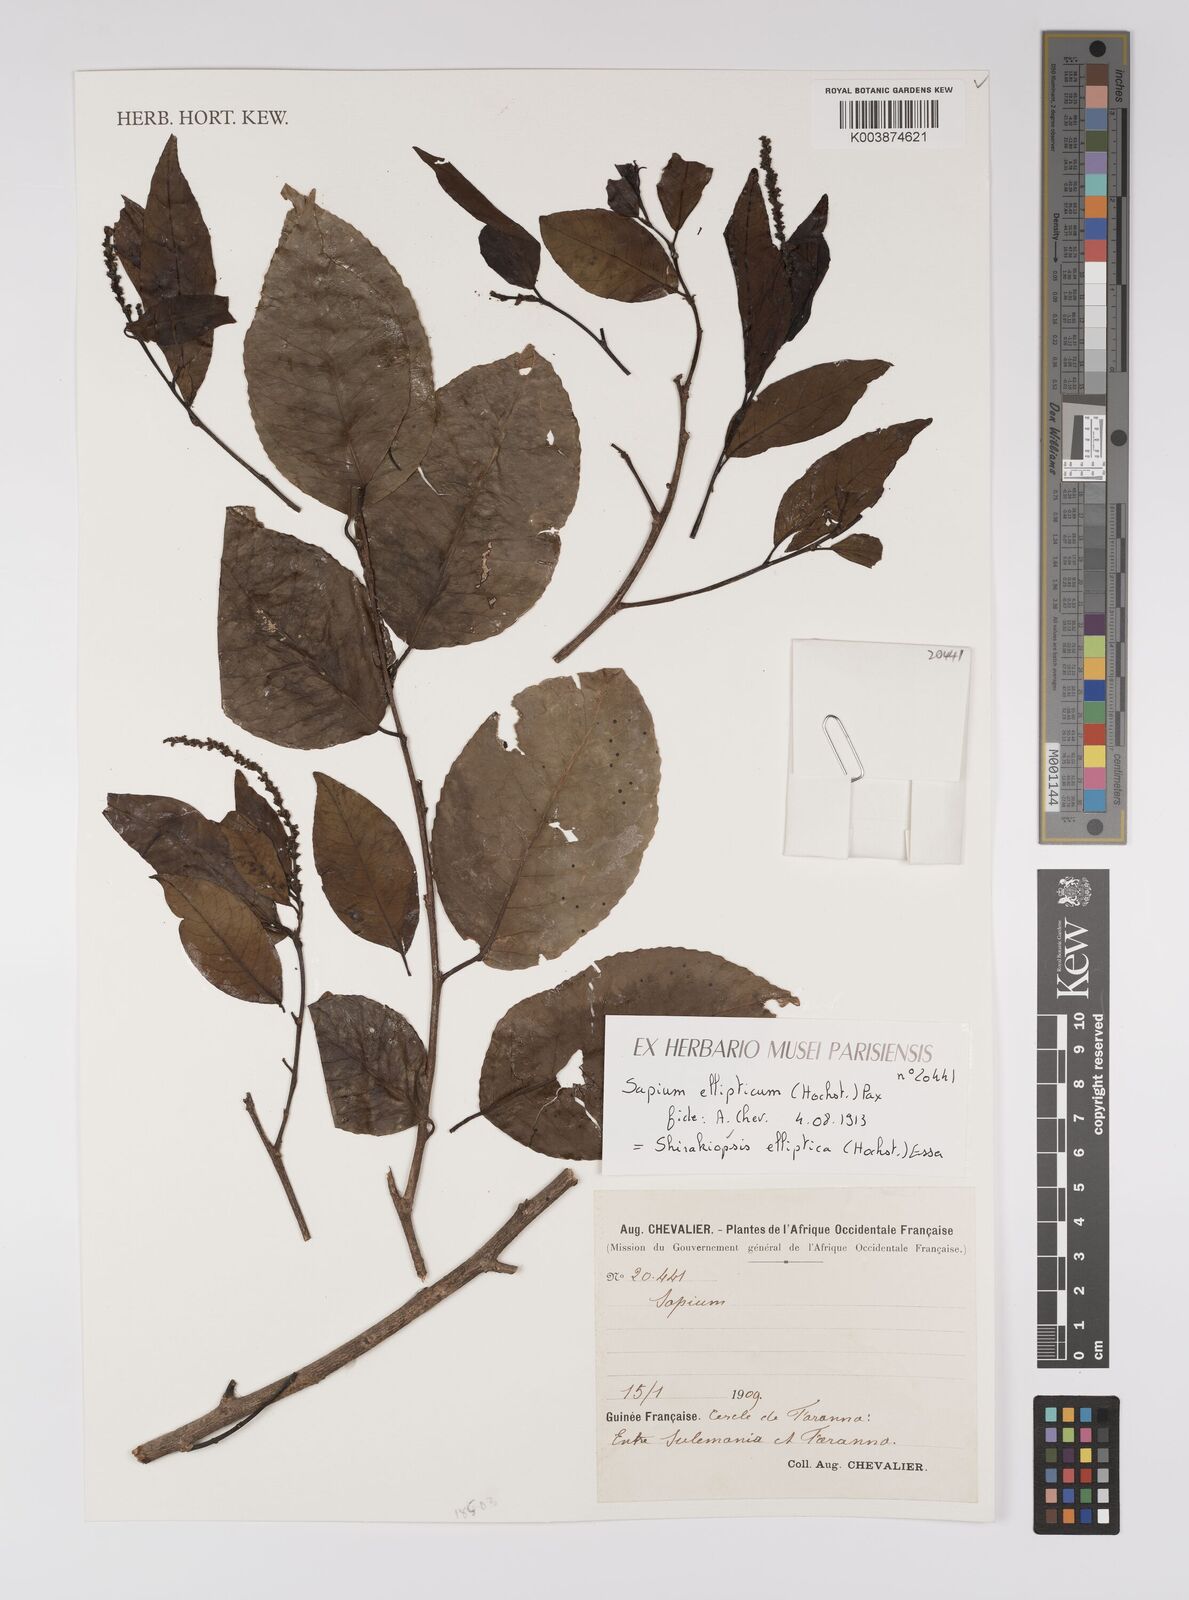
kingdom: Plantae
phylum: Tracheophyta
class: Magnoliopsida
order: Malpighiales
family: Euphorbiaceae
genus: Shirakiopsis
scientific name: Shirakiopsis elliptica
